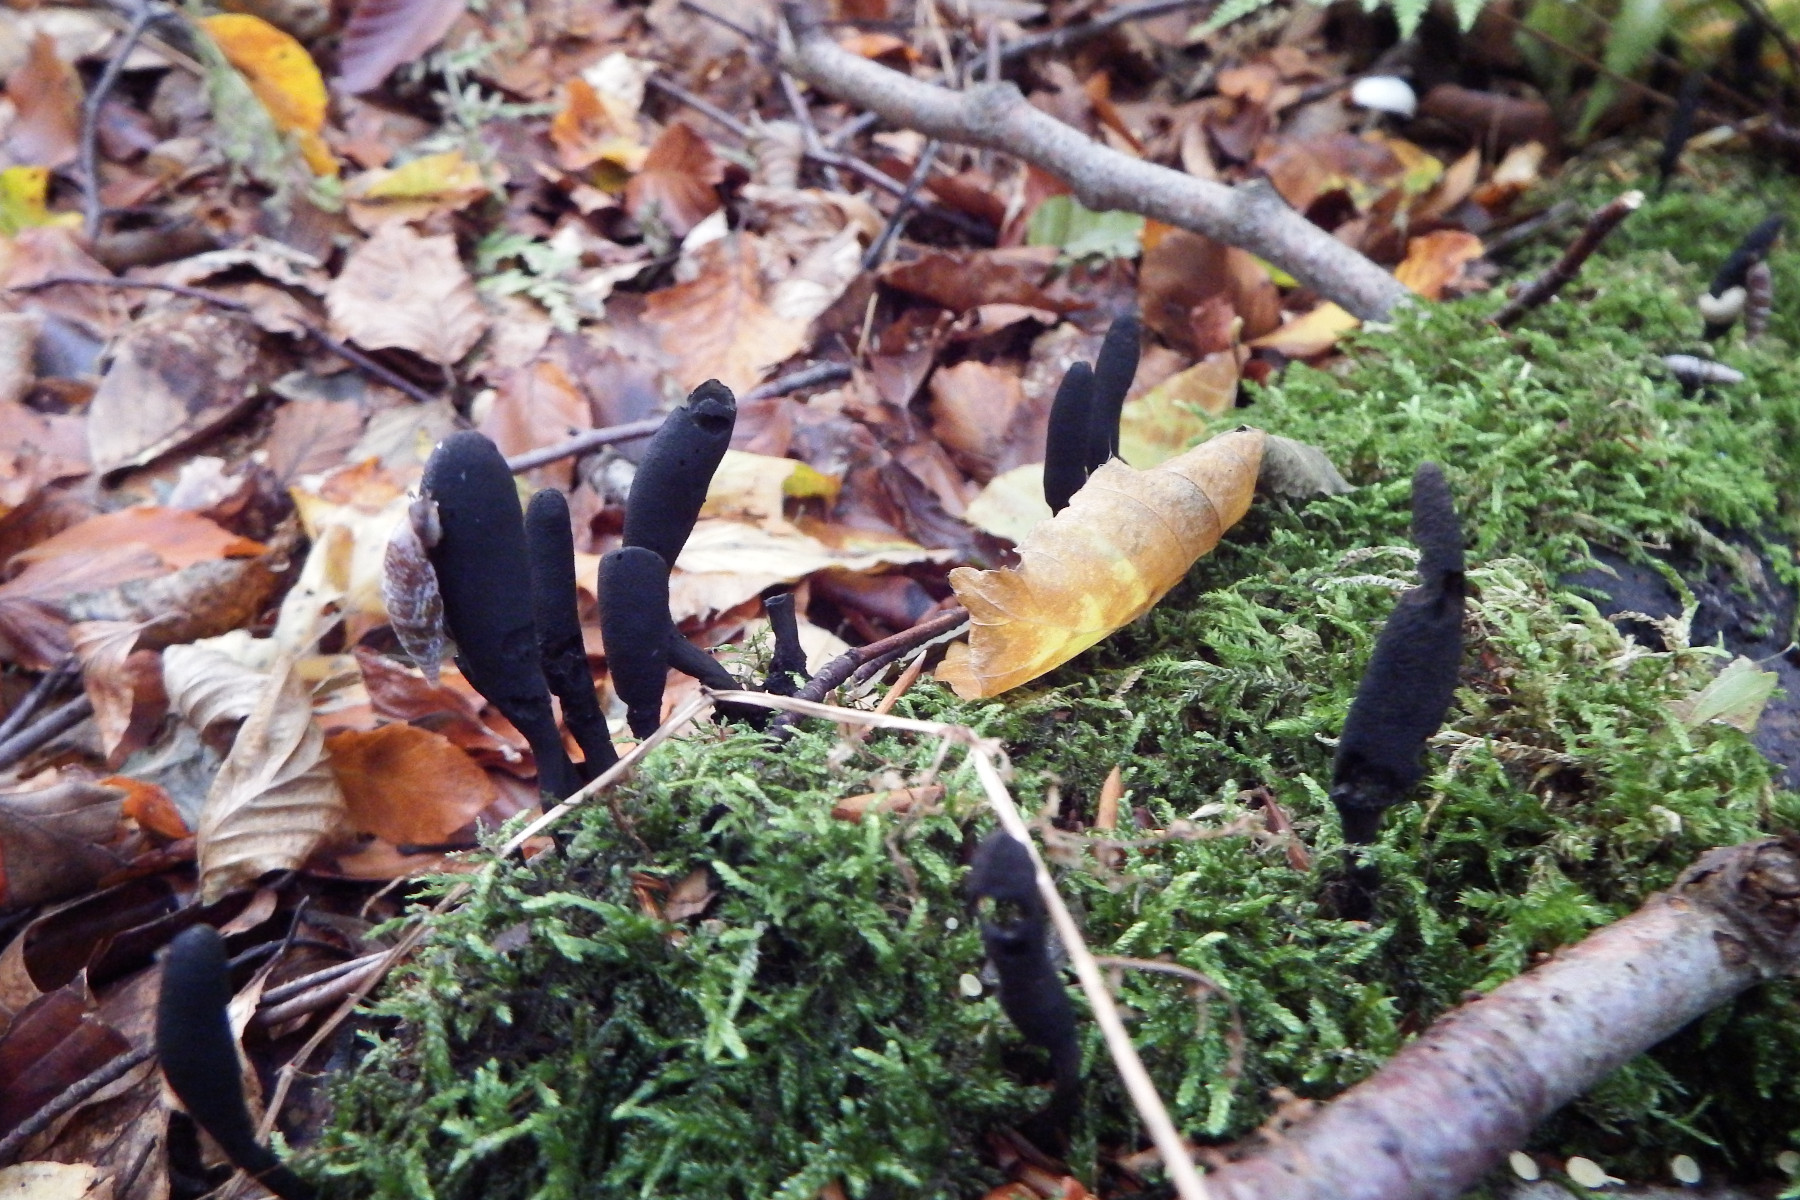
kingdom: Fungi
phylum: Ascomycota
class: Sordariomycetes
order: Xylariales
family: Xylariaceae
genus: Xylaria
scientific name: Xylaria longipes
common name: slank stødsvamp
